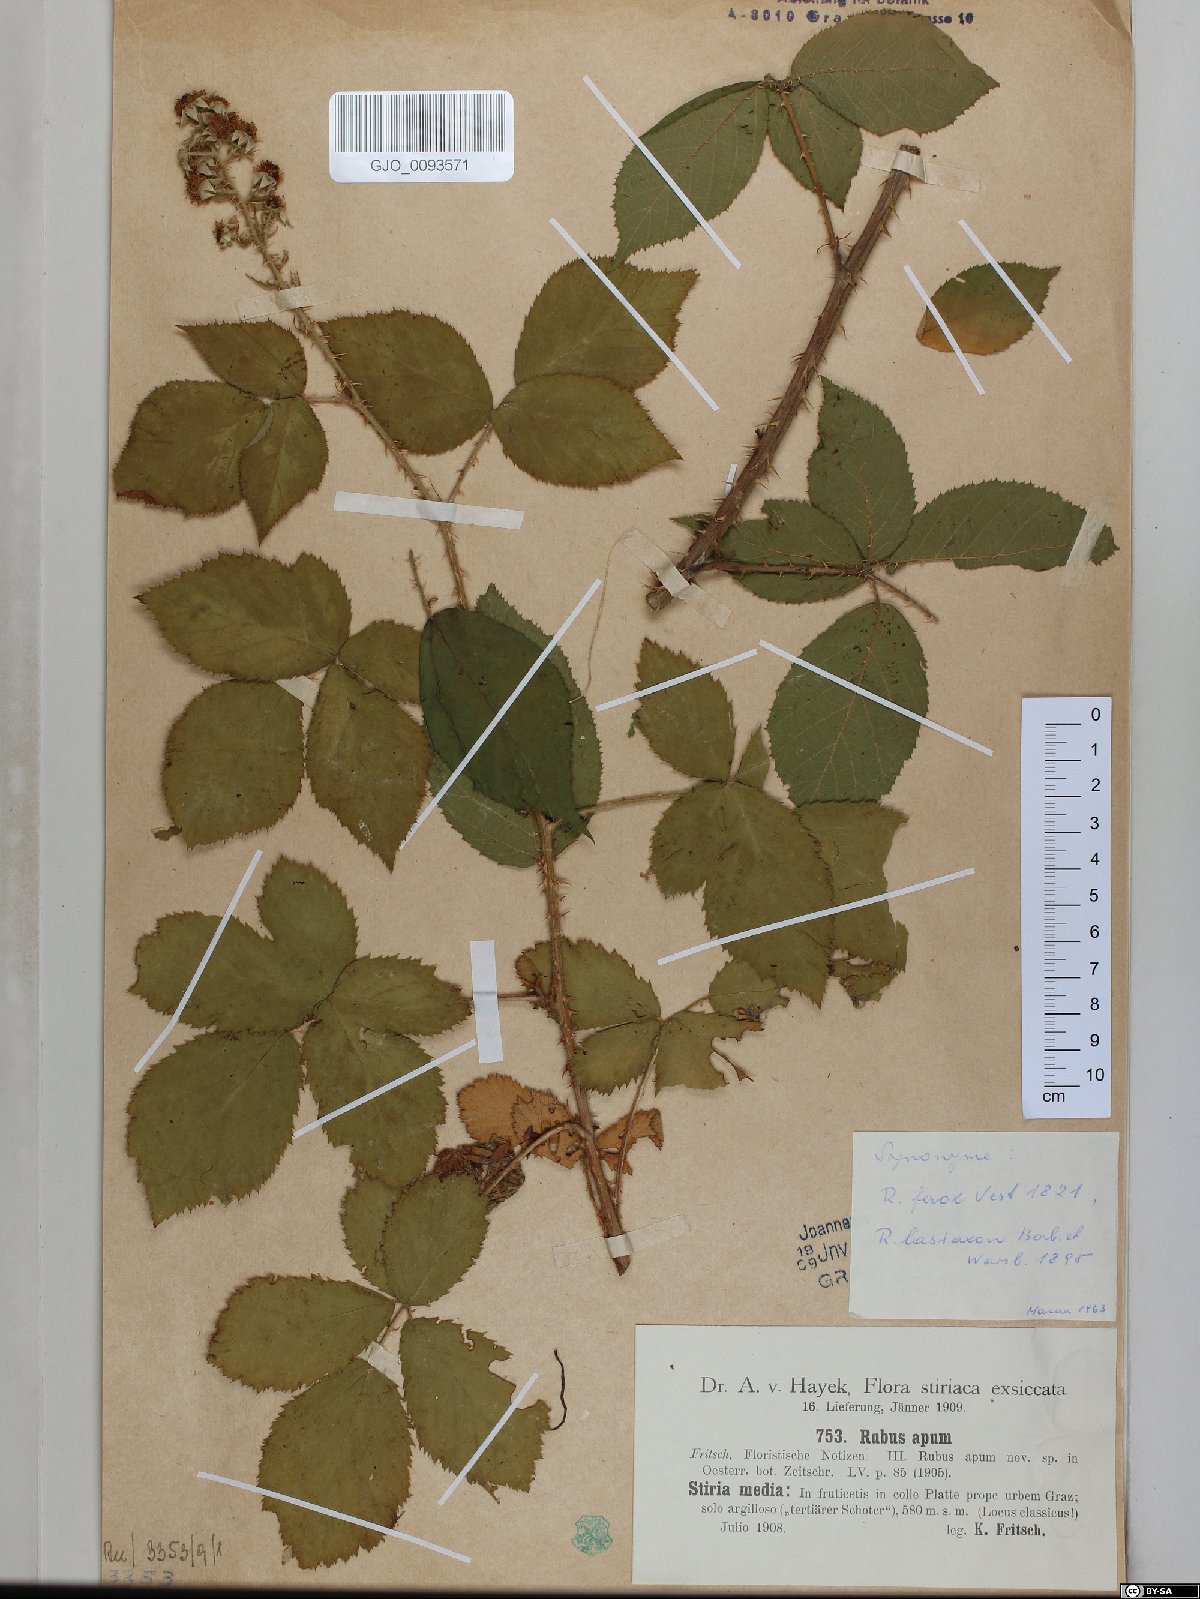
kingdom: Plantae
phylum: Tracheophyta
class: Magnoliopsida
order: Rosales
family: Rosaceae
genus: Rubus
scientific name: Rubus ferox
